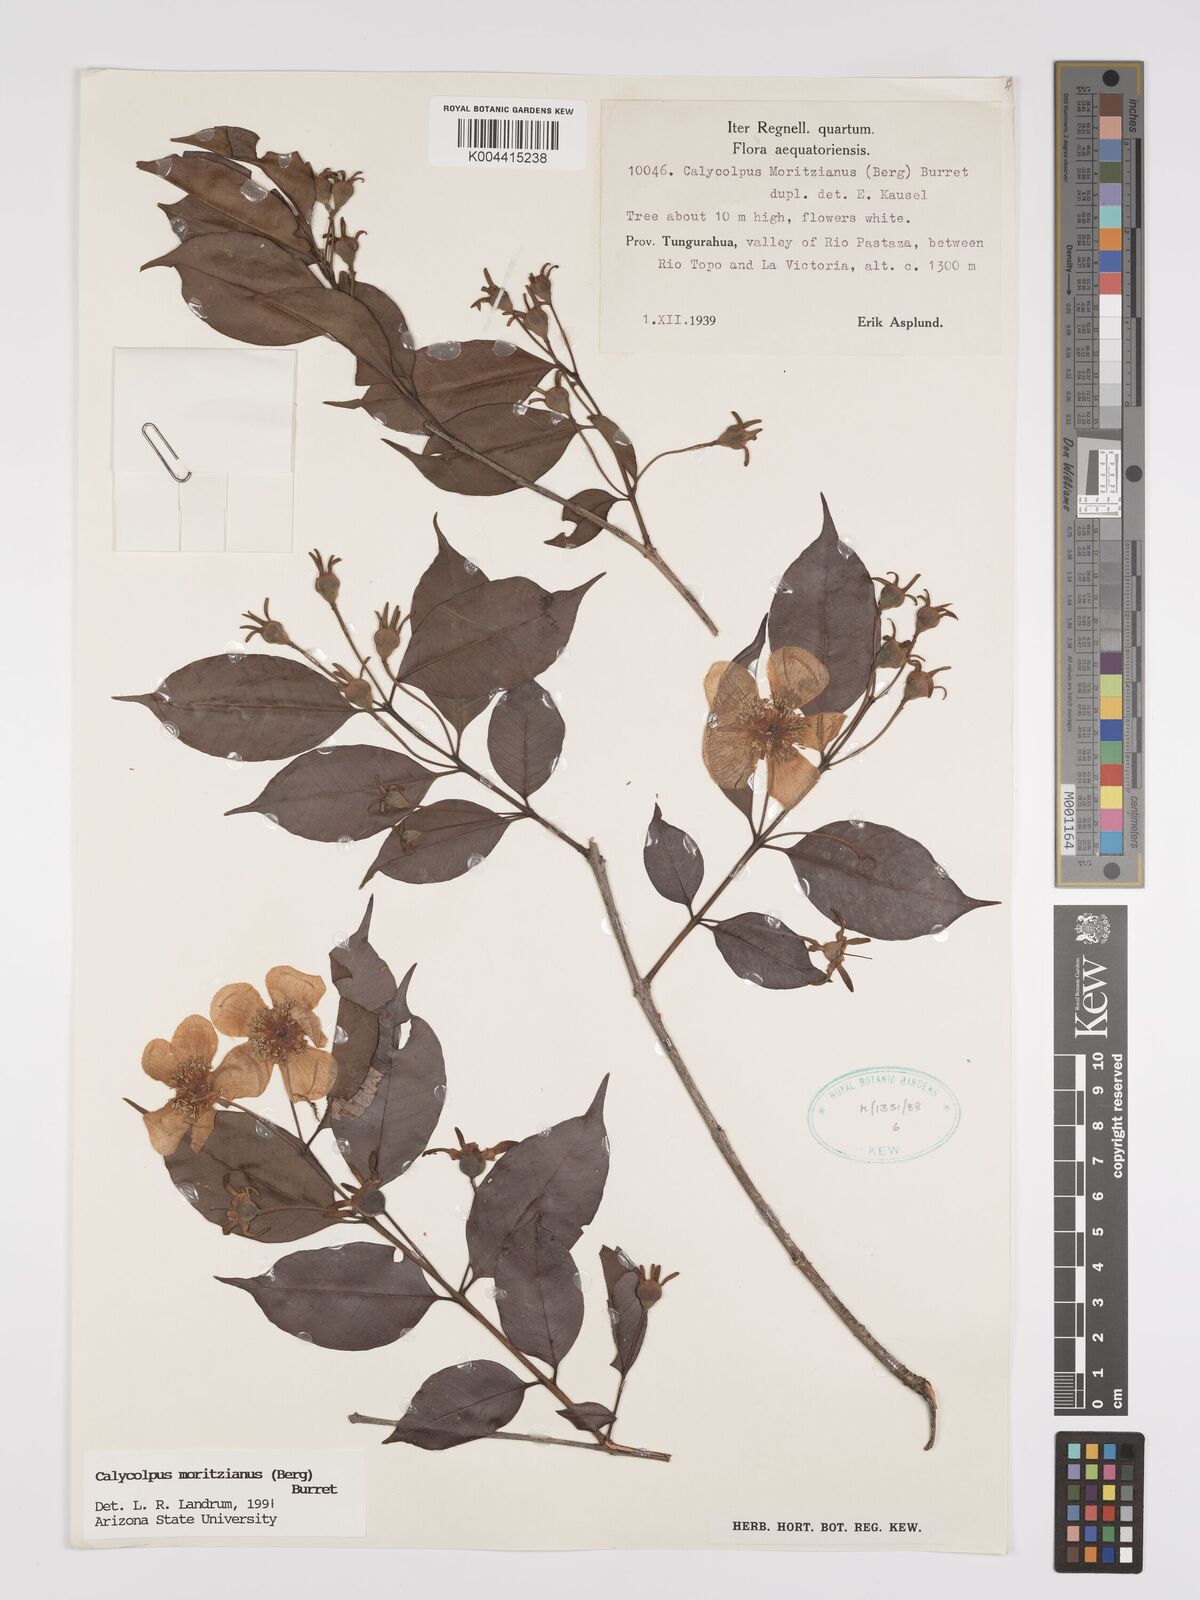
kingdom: Plantae
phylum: Tracheophyta
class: Magnoliopsida
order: Myrtales
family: Myrtaceae
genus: Calycolpus
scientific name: Calycolpus moritzianus
